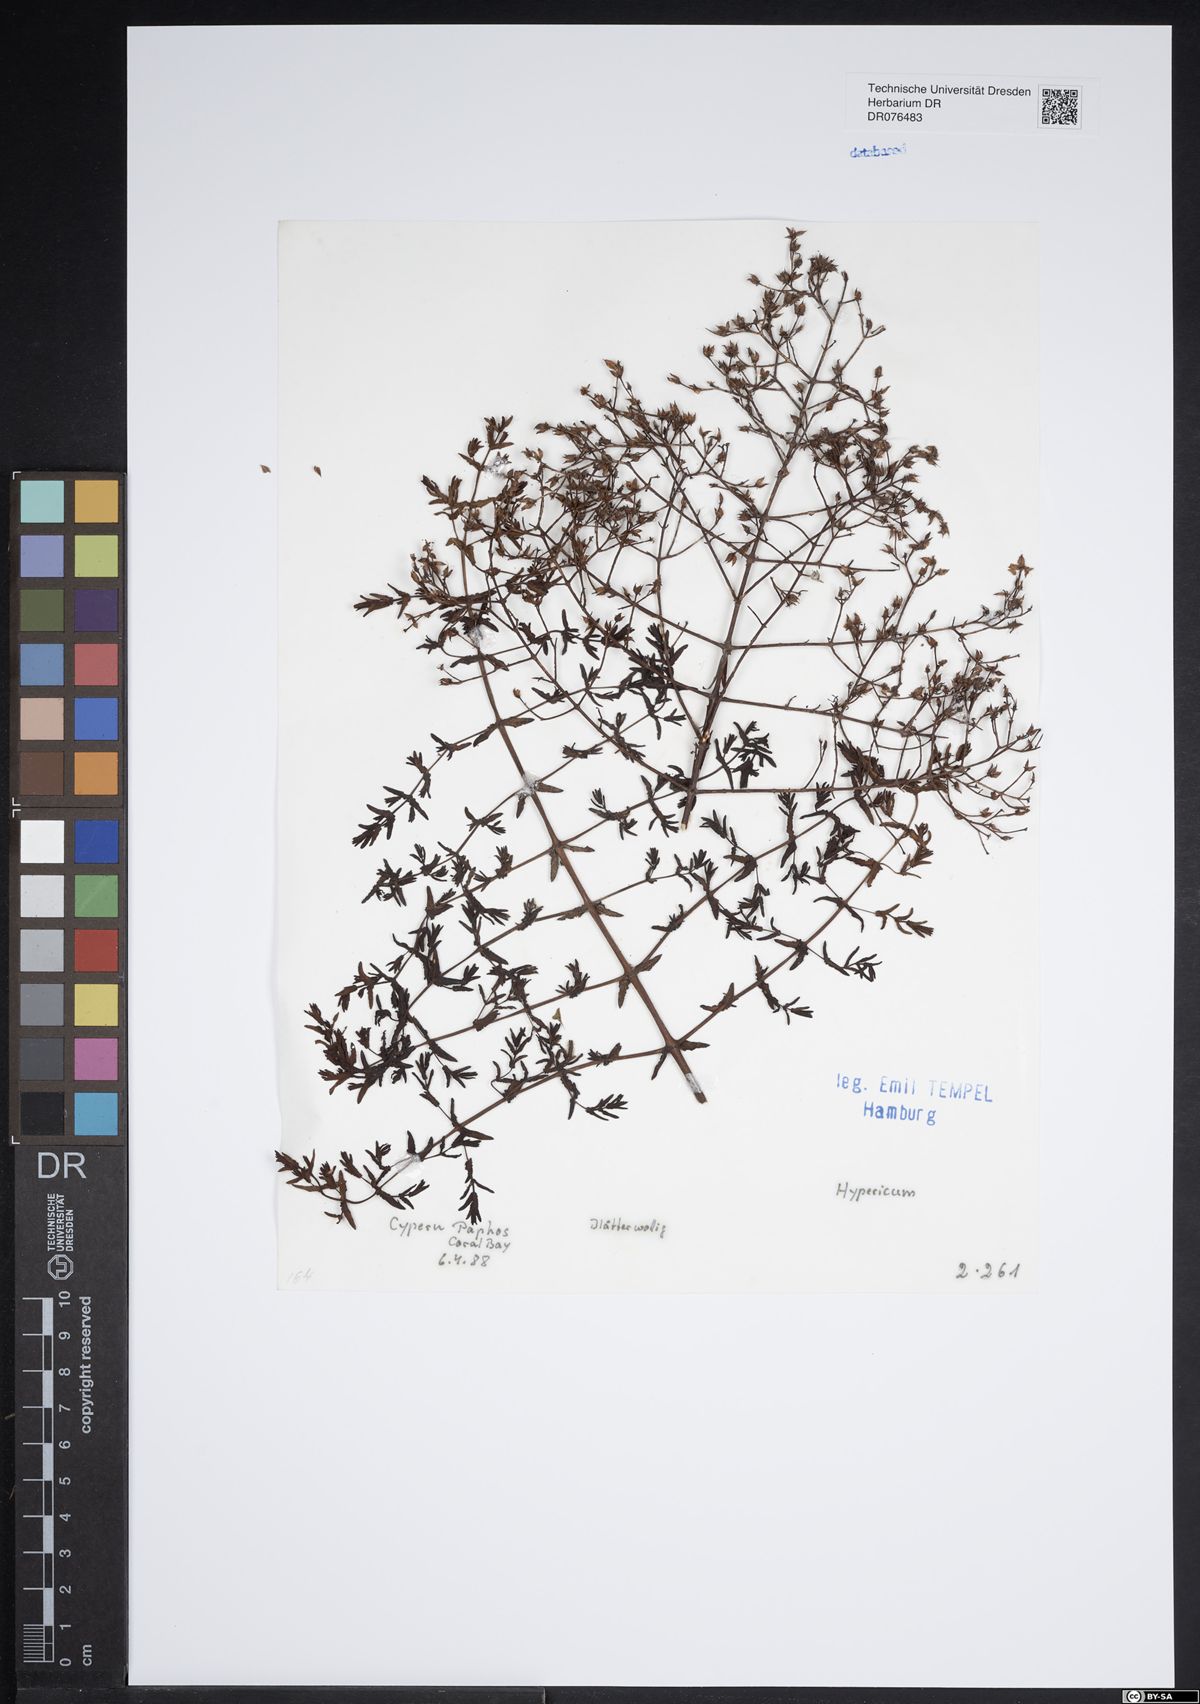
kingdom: Plantae
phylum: Tracheophyta
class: Magnoliopsida
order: Malpighiales
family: Hypericaceae
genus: Hypericum
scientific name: Hypericum
